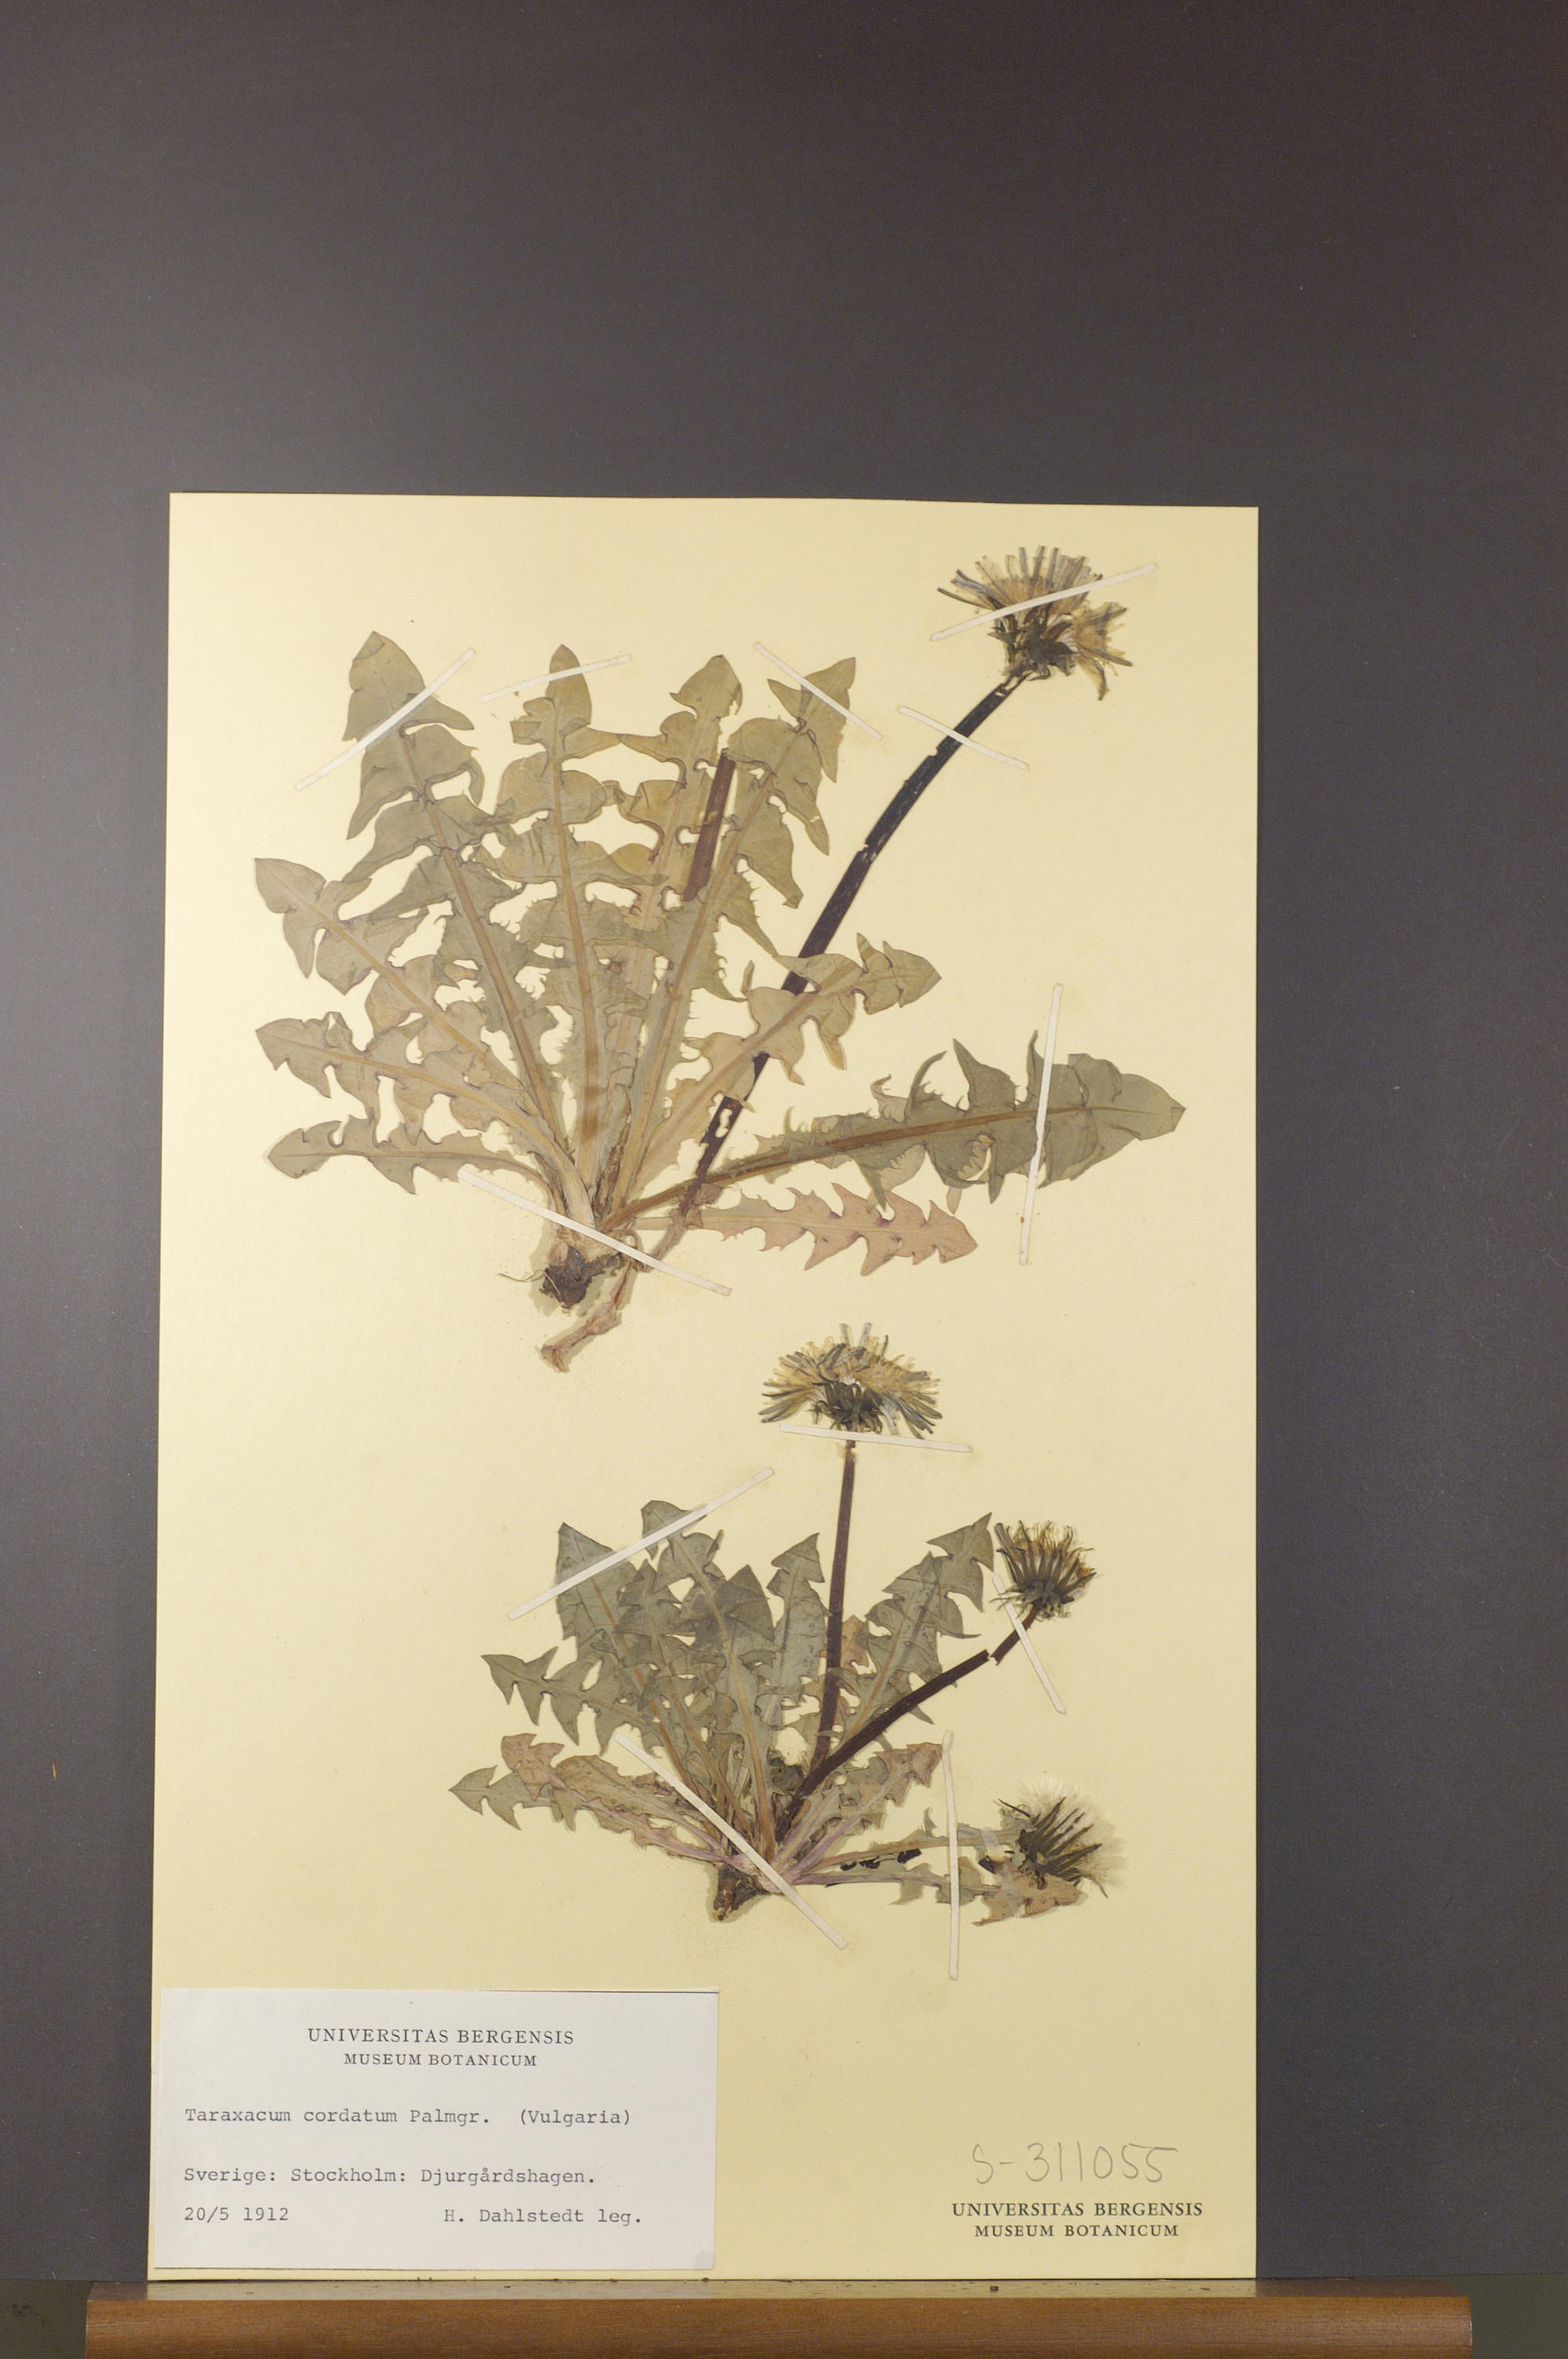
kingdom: Plantae
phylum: Tracheophyta
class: Magnoliopsida
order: Asterales
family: Asteraceae
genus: Taraxacum
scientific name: Taraxacum cordatum
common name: Entire-lobed dandelion
